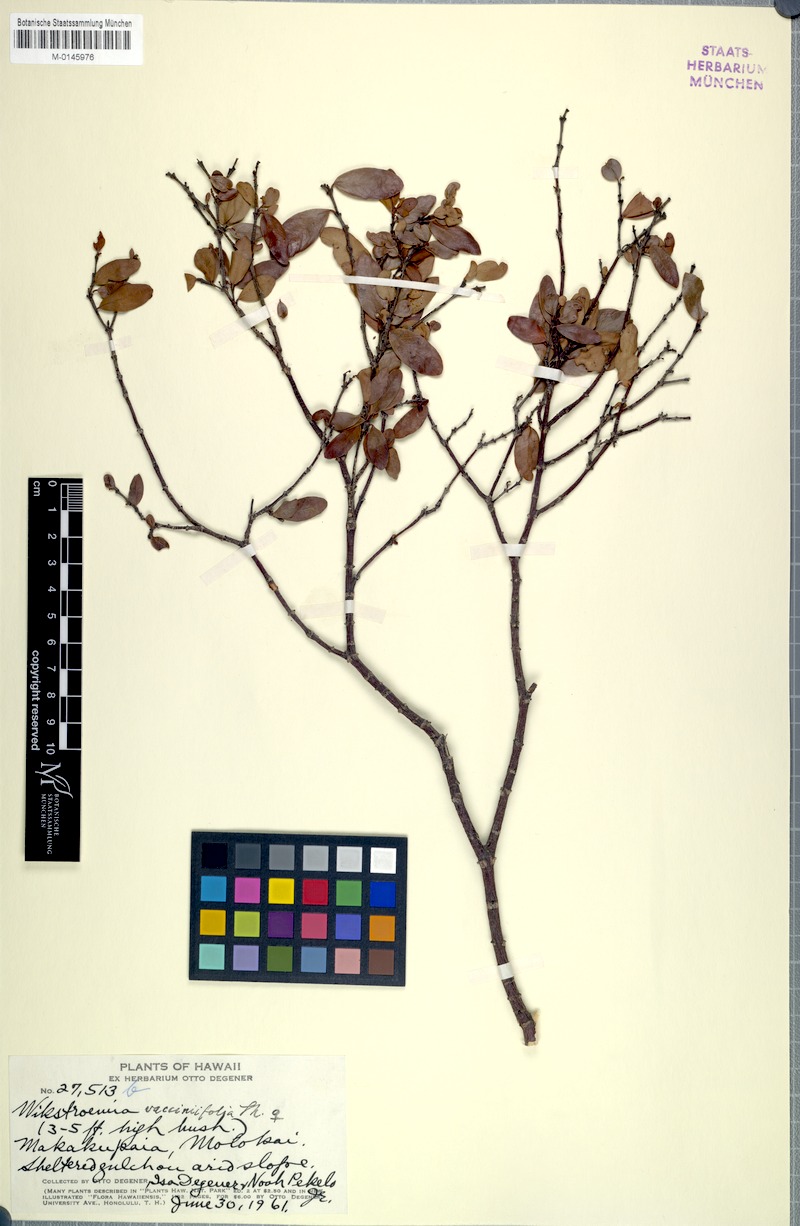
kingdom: Plantae
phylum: Tracheophyta
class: Magnoliopsida
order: Malvales
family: Thymelaeaceae
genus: Wikstroemia
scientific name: Wikstroemia oahuensis
